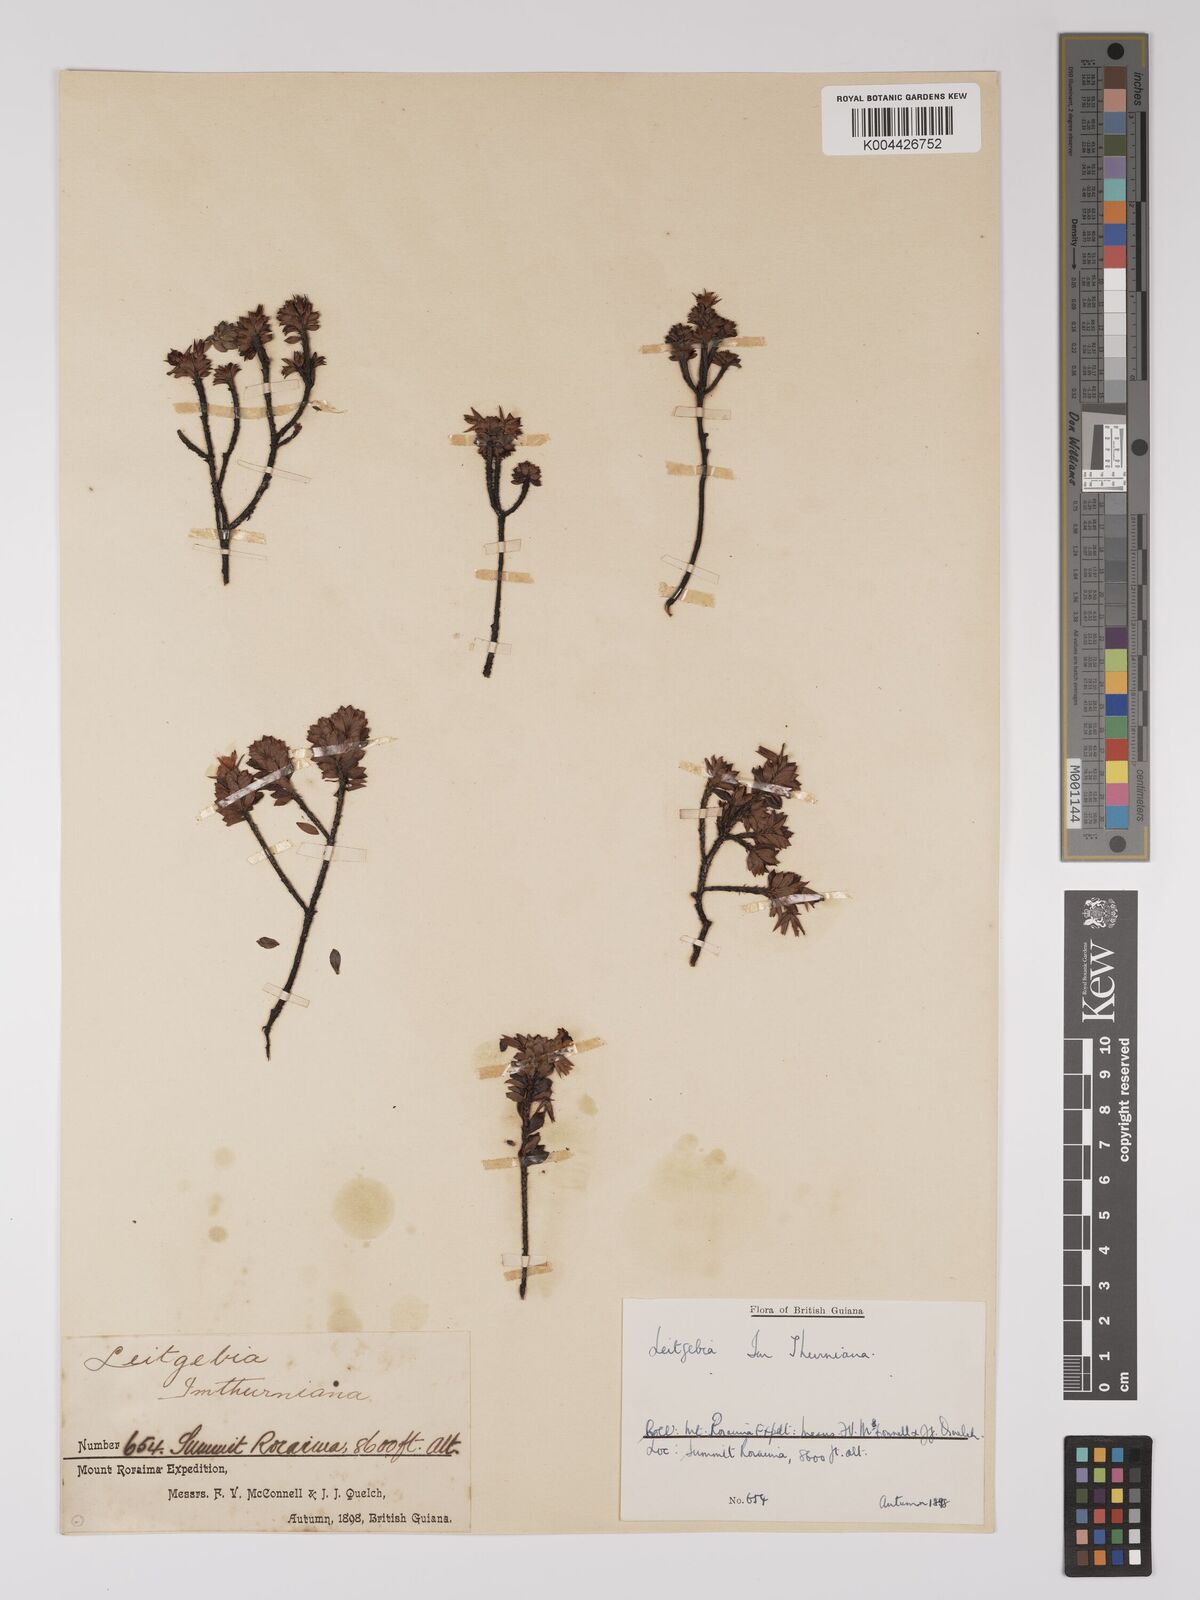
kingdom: Plantae
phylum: Tracheophyta
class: Magnoliopsida
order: Malpighiales
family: Ochnaceae
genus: Sauvagesia
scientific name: Sauvagesia imthurniana
